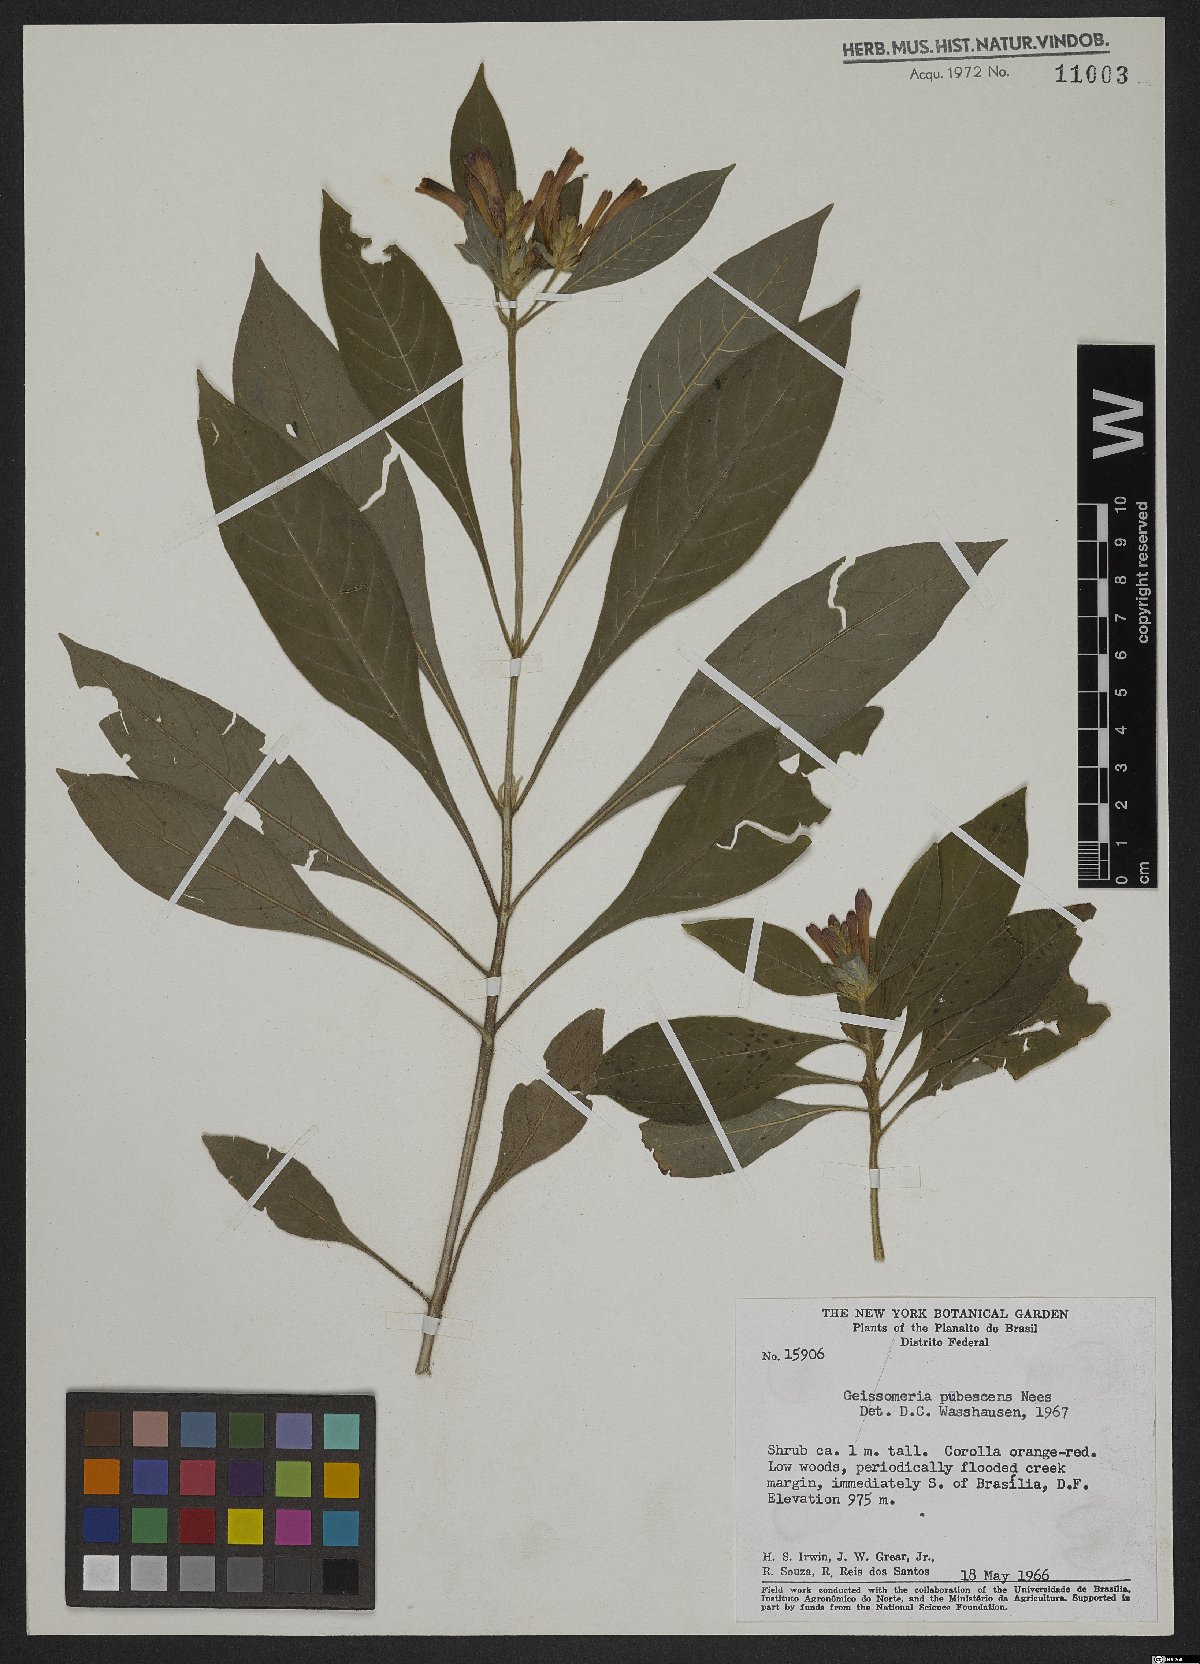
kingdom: Plantae
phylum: Tracheophyta
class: Magnoliopsida
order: Lamiales
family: Acanthaceae
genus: Aphelandra
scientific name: Aphelandra longiflora
